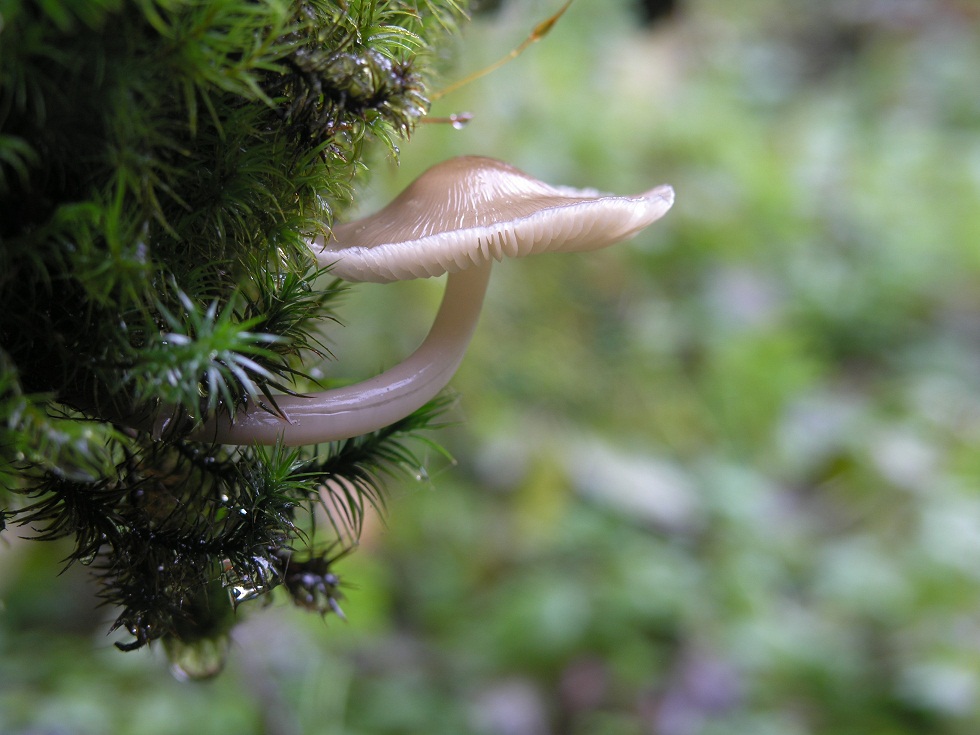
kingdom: Fungi
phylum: Basidiomycota
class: Agaricomycetes
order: Agaricales
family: Mycenaceae
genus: Mycena
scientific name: Mycena galericulata
